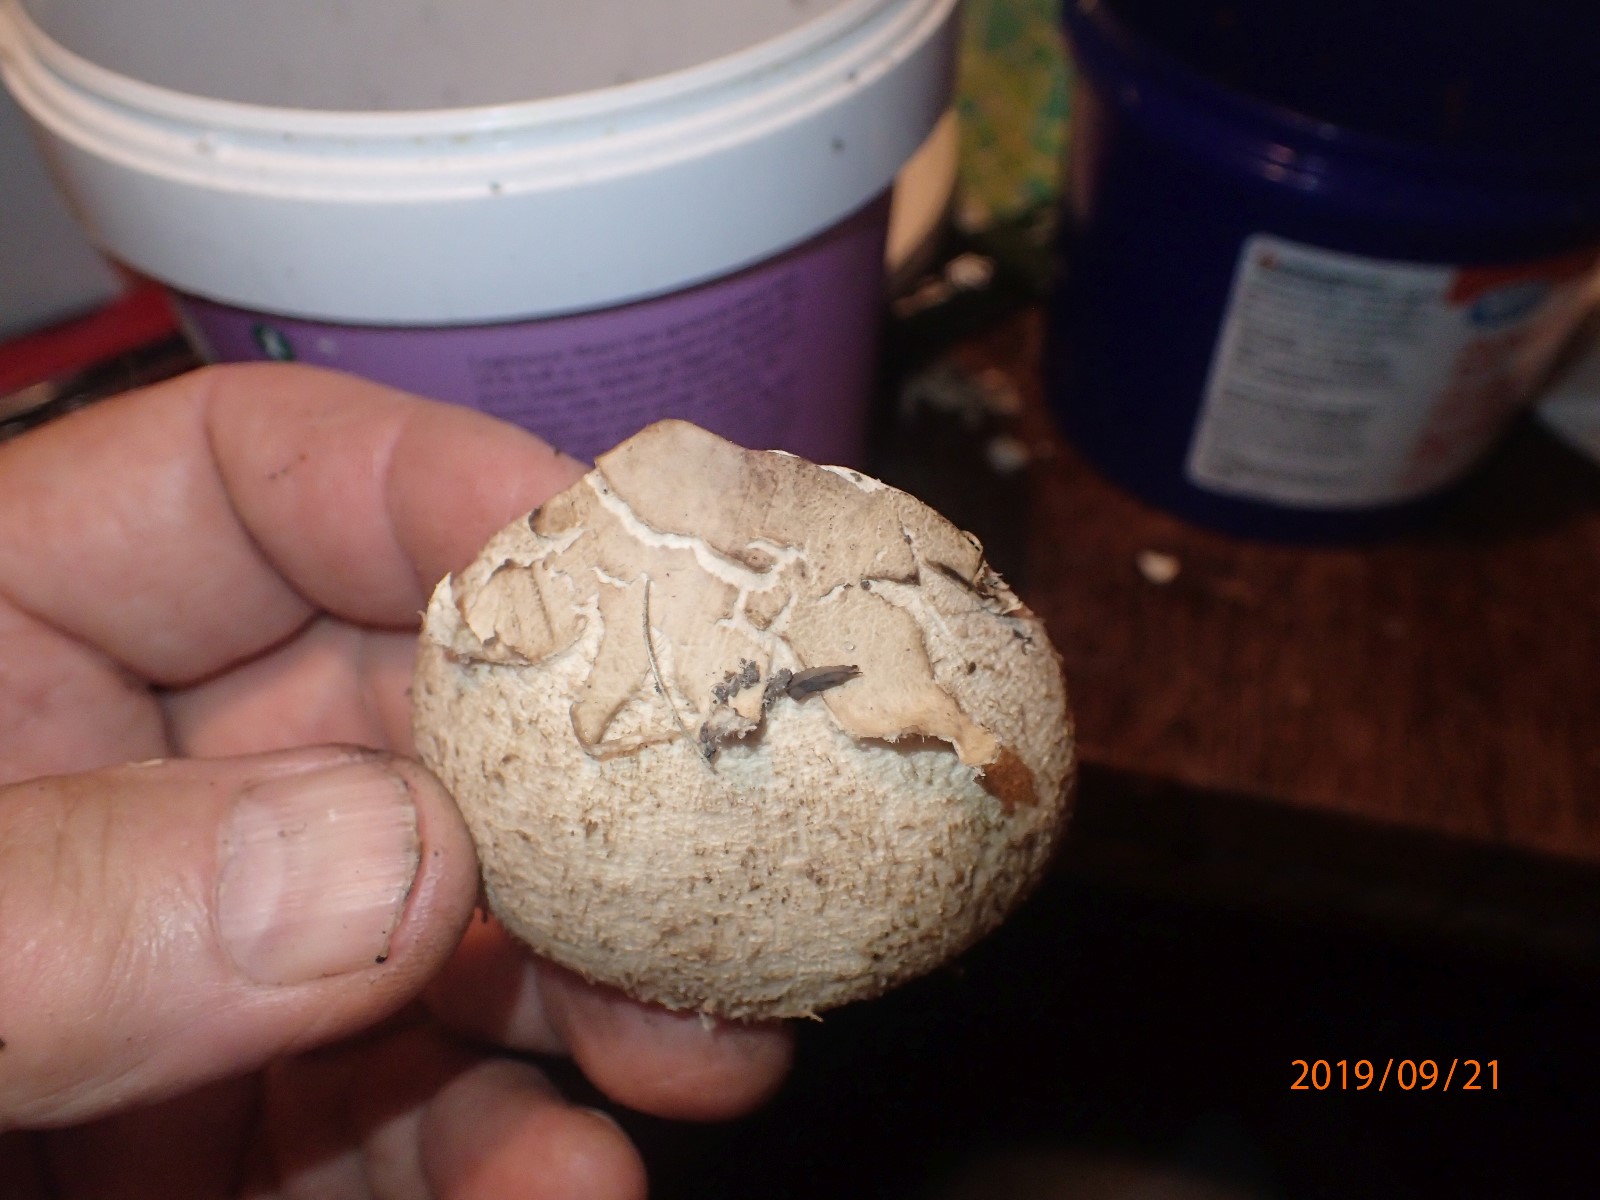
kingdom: Fungi
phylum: Basidiomycota
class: Agaricomycetes
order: Agaricales
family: Agaricaceae
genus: Macrolepiota
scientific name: Macrolepiota procera
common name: stor kæmpeparasolhat
